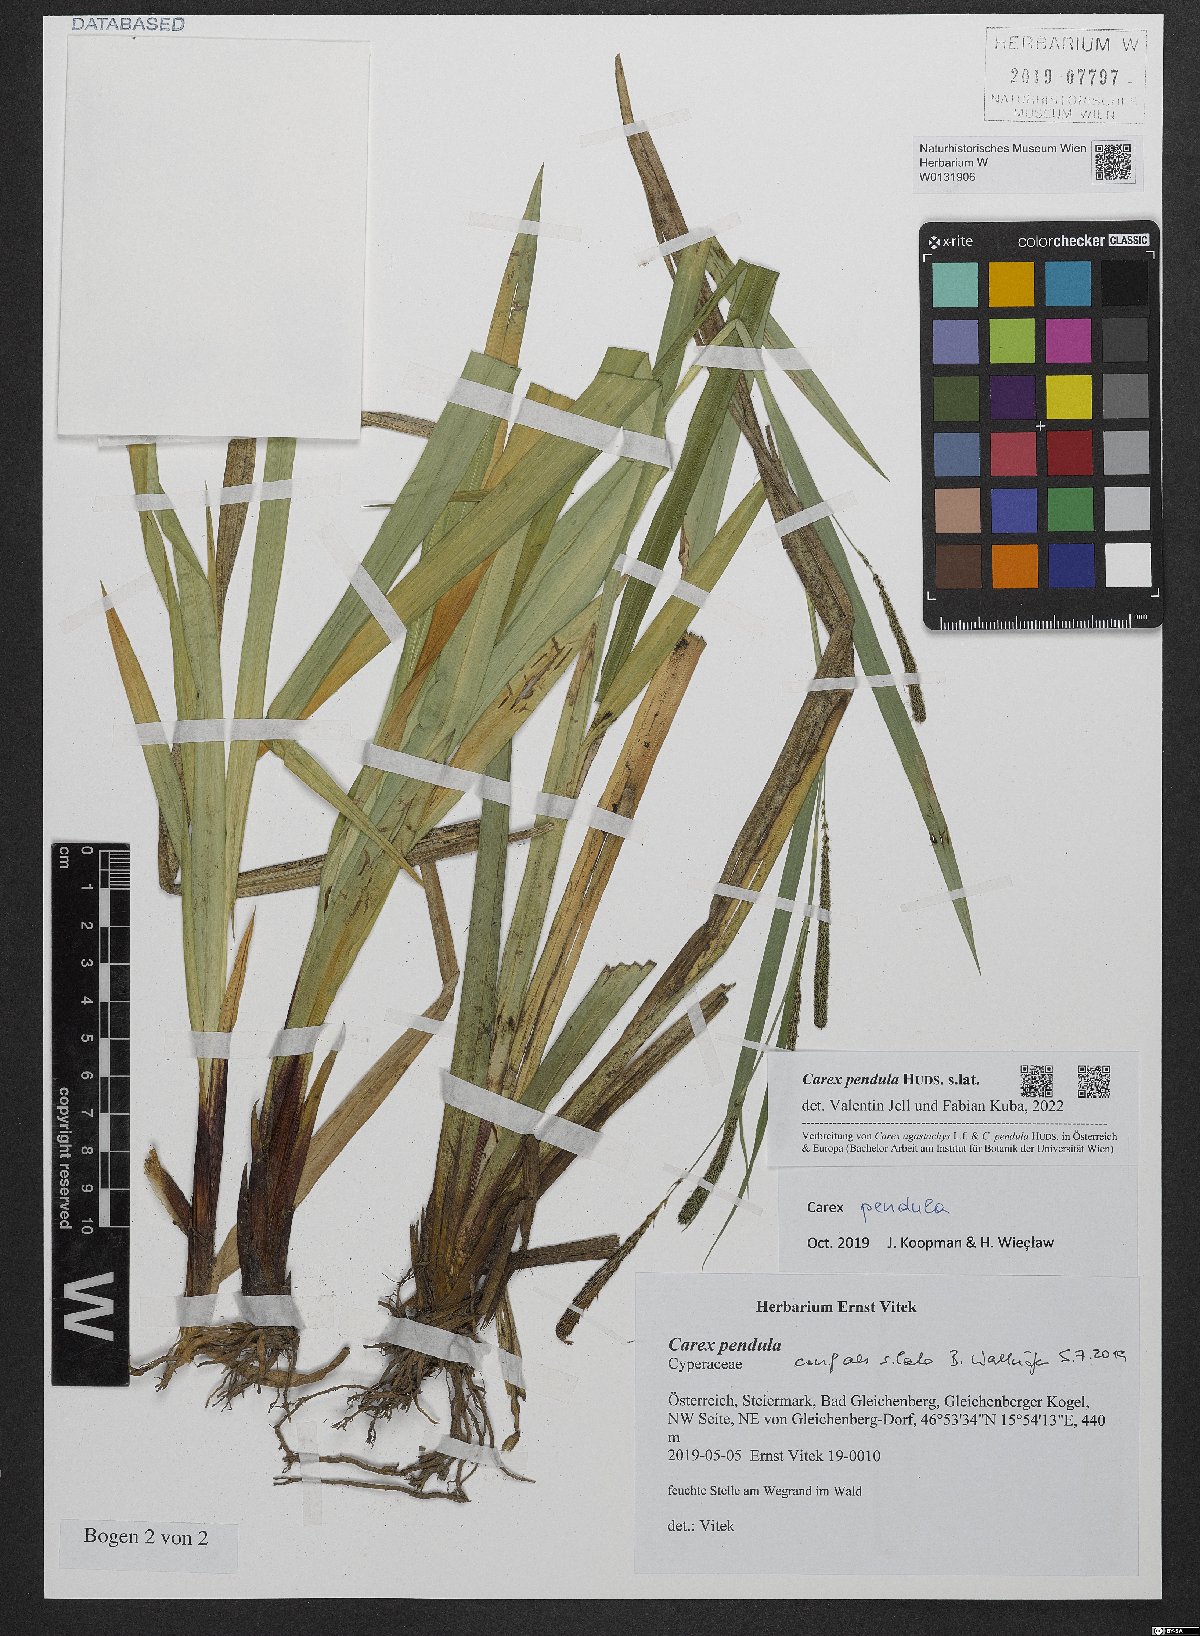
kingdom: Plantae
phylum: Tracheophyta
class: Liliopsida
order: Poales
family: Cyperaceae
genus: Carex
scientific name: Carex pendula
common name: Pendulous sedge
